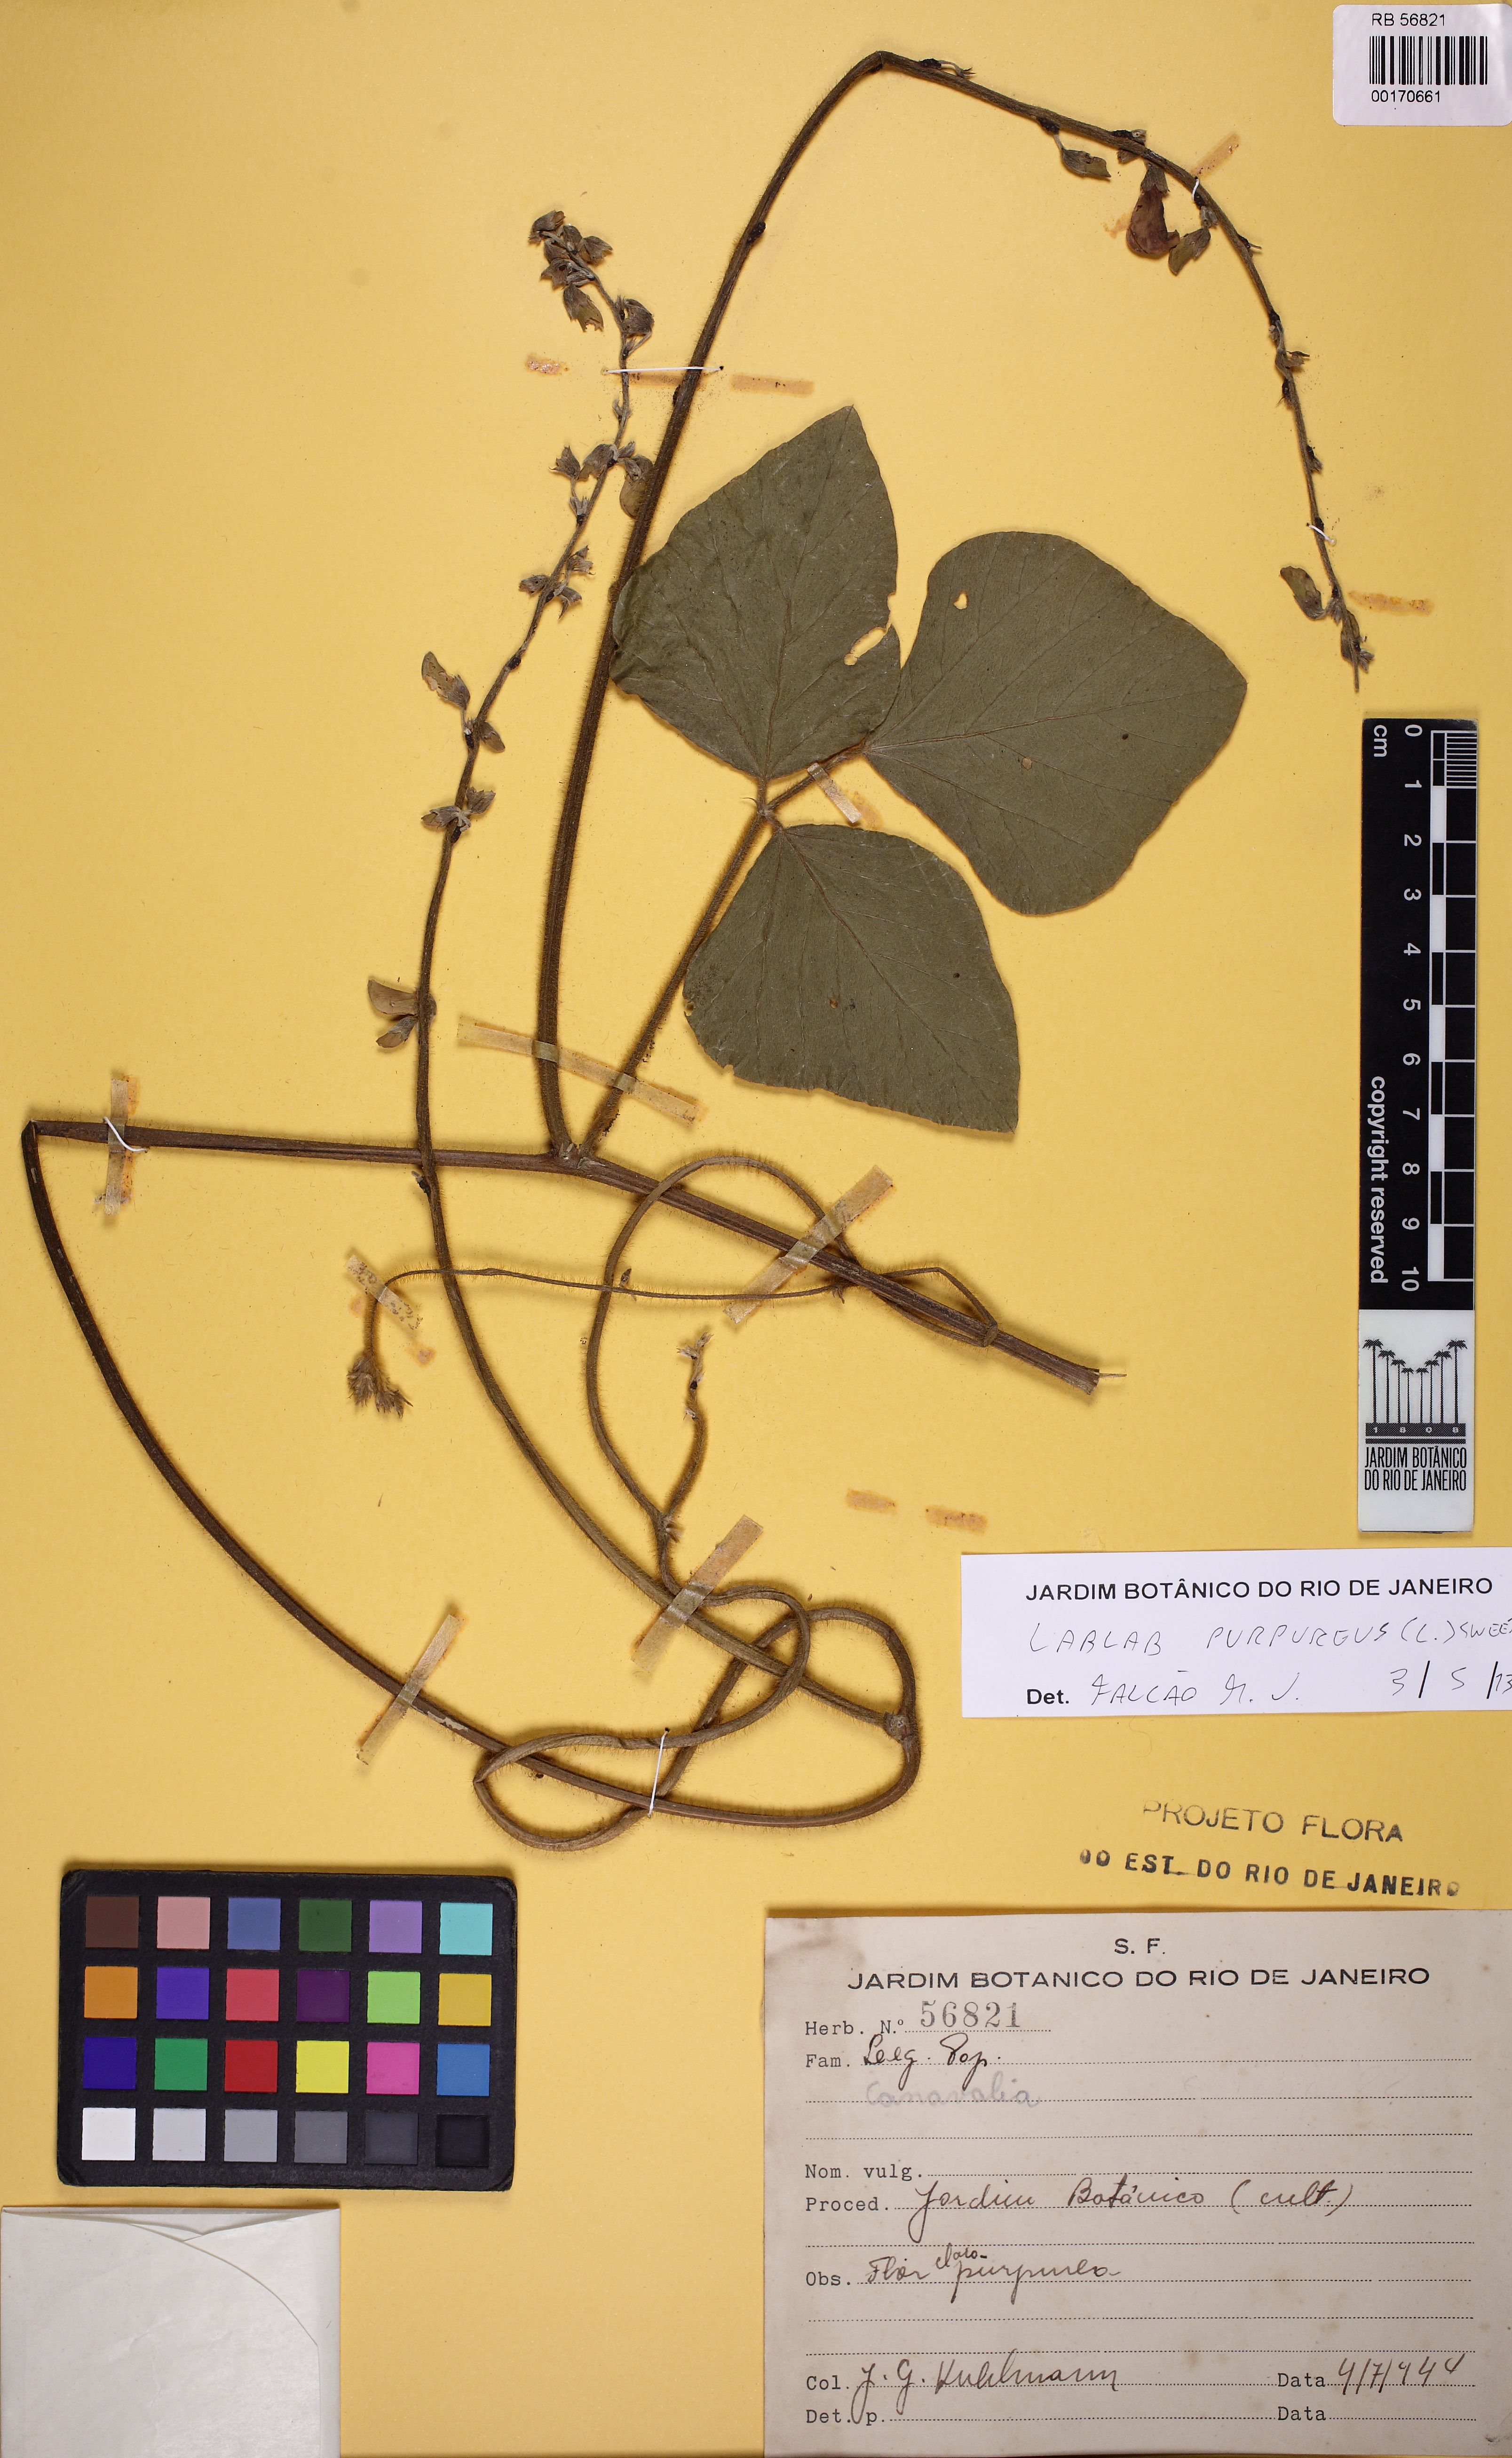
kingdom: Plantae
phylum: Tracheophyta
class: Magnoliopsida
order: Fabales
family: Fabaceae
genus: Lablab
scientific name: Lablab purpureus
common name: Lablab-bean
